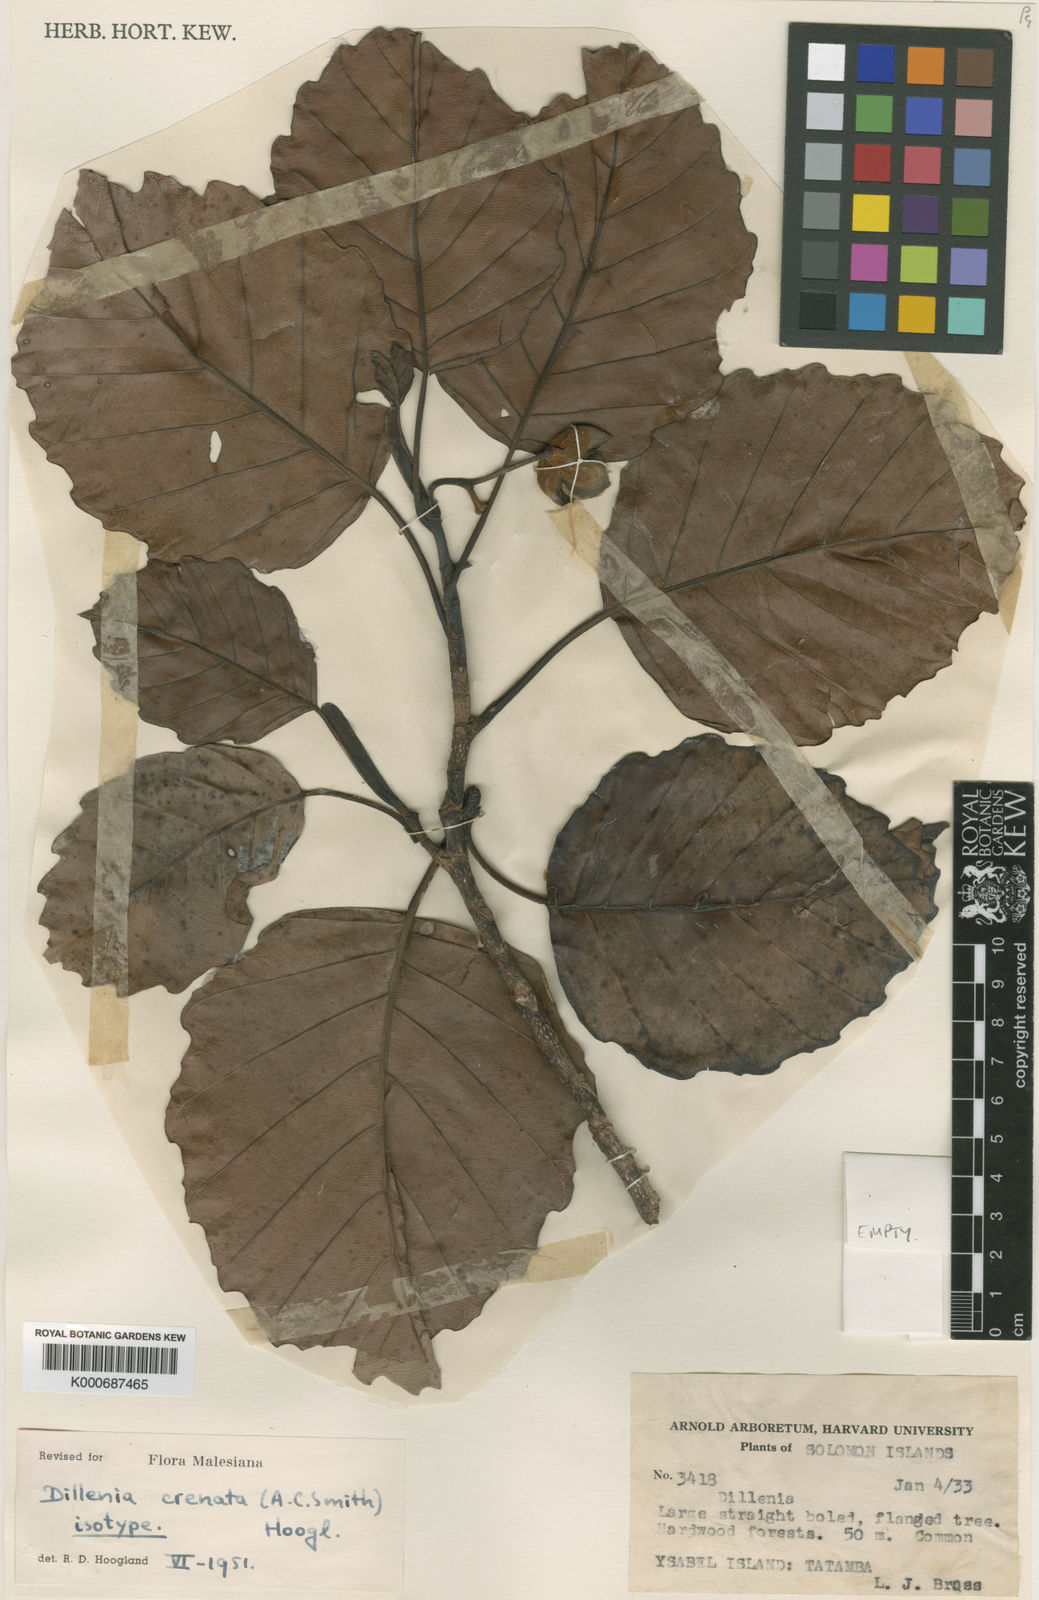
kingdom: Plantae
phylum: Tracheophyta
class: Magnoliopsida
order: Dilleniales
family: Dilleniaceae
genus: Dillenia
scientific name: Dillenia crenatifolia
